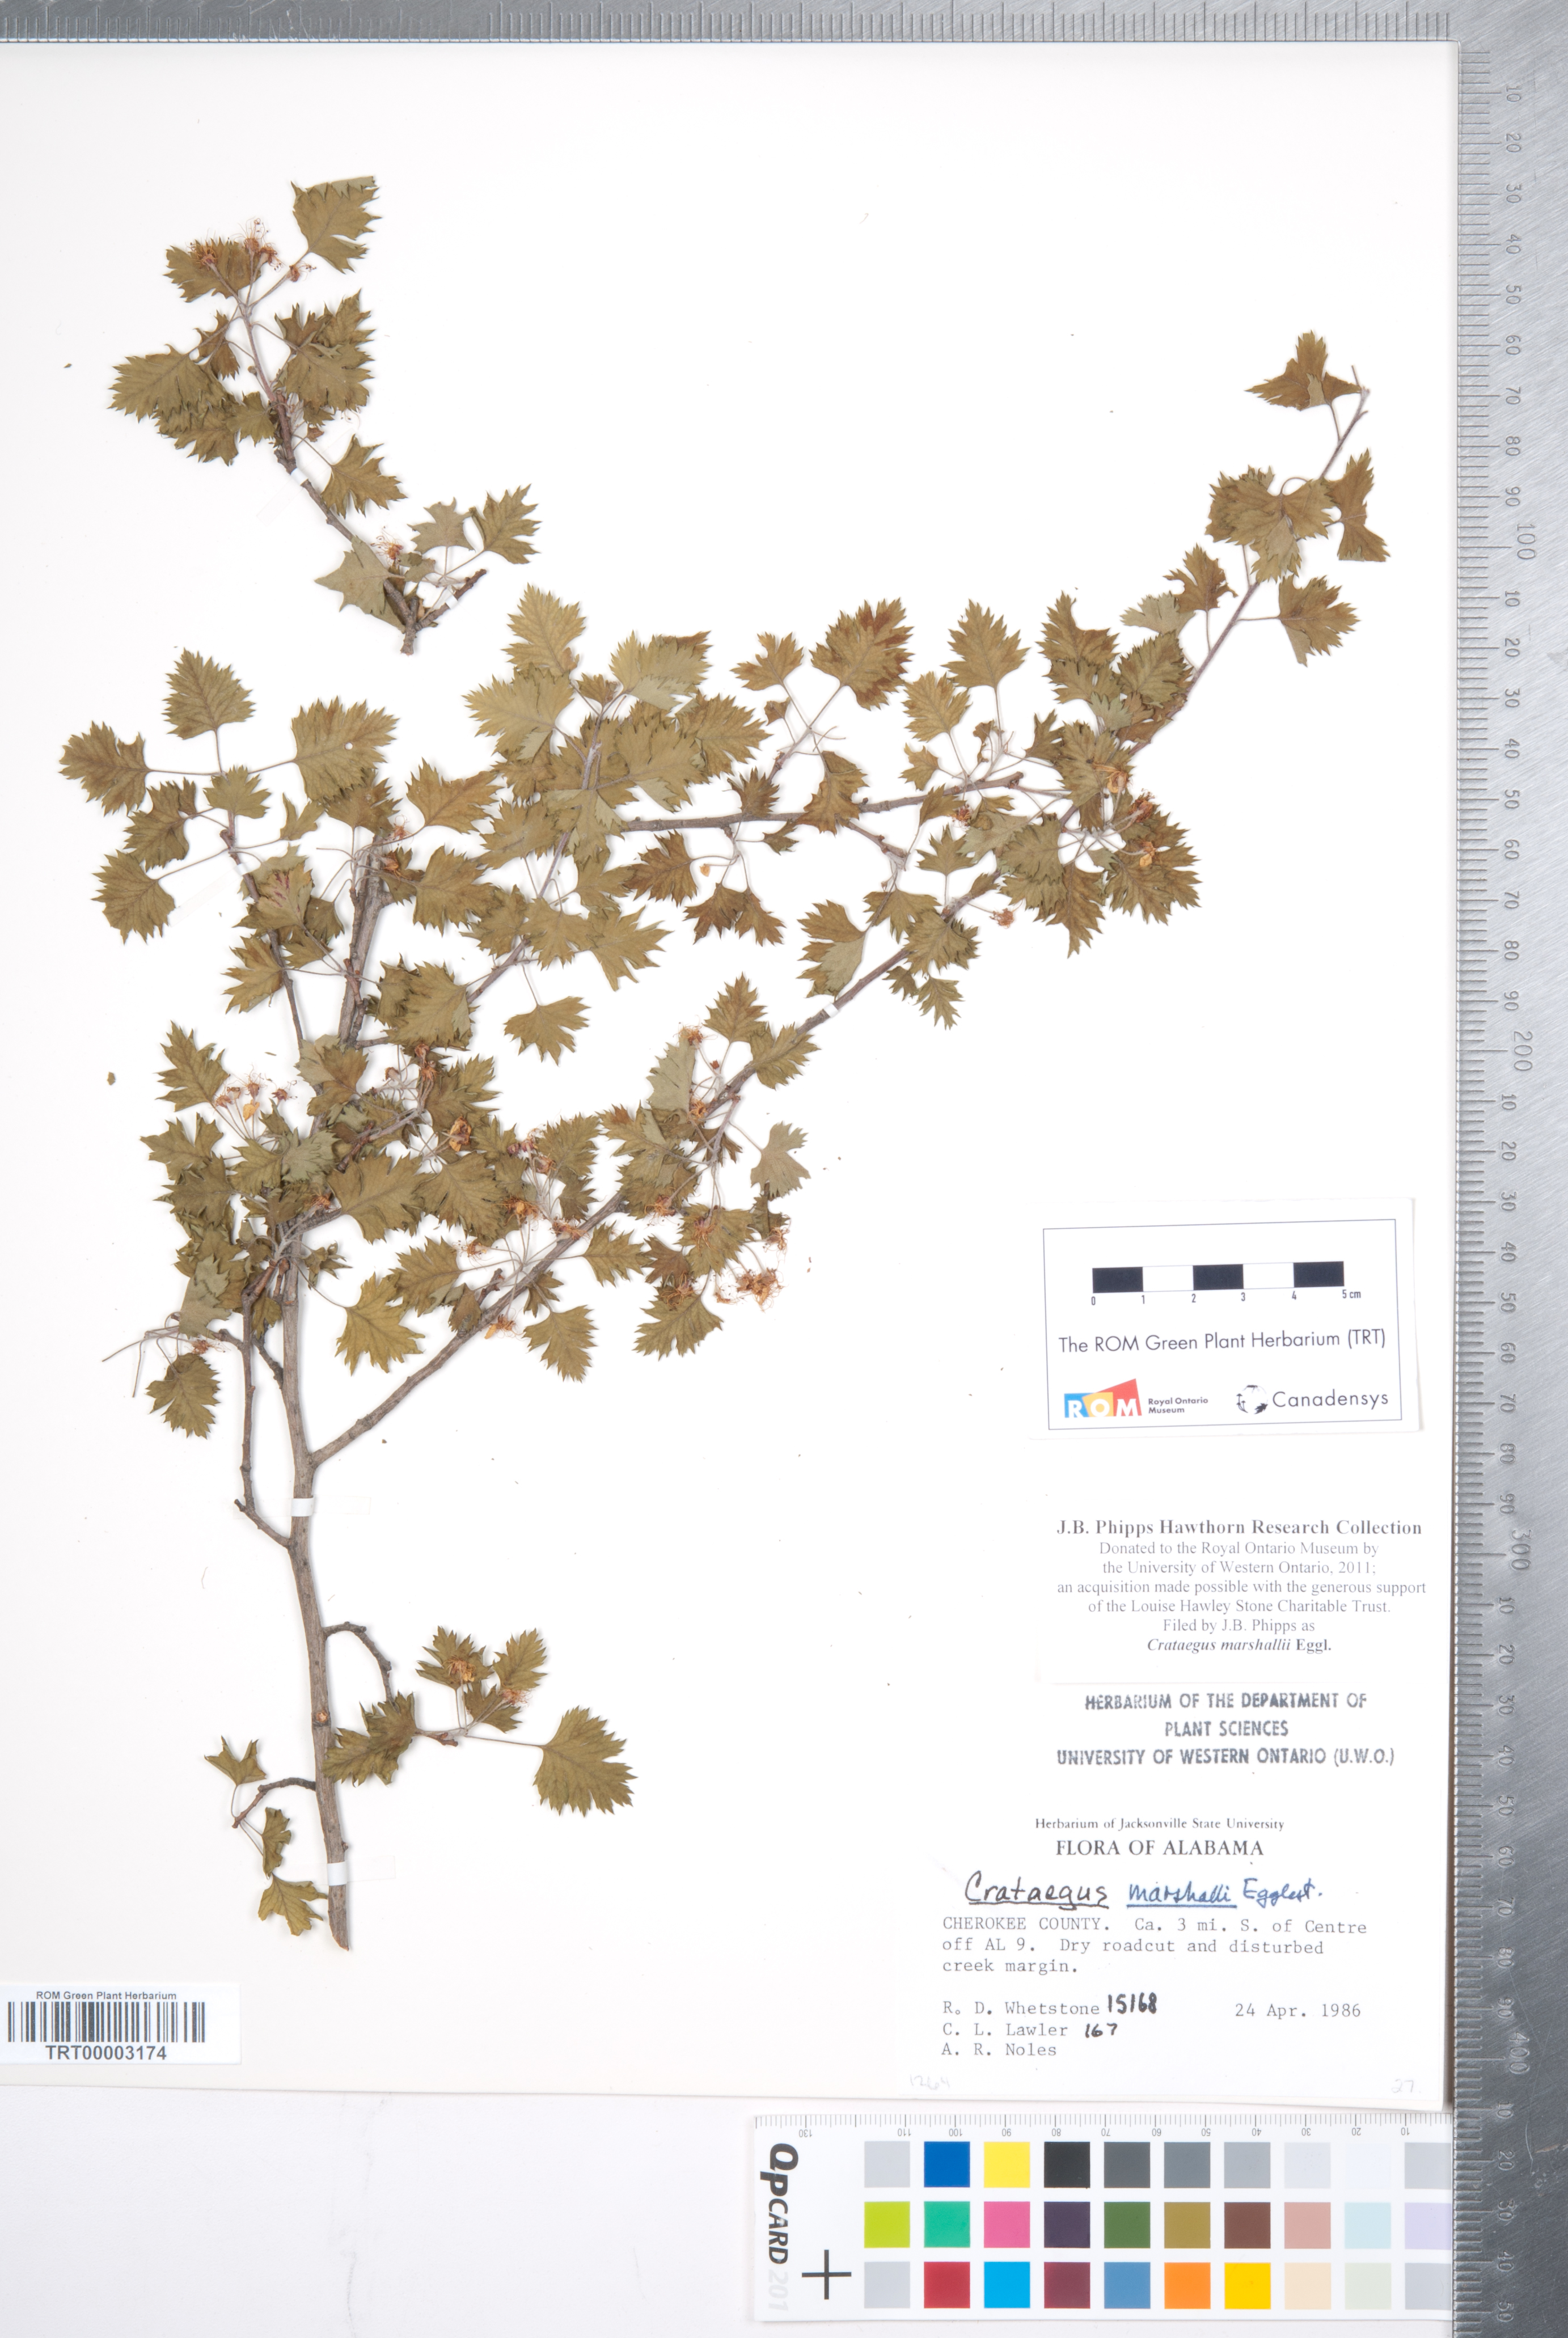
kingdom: Plantae
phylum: Tracheophyta
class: Magnoliopsida
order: Rosales
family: Rosaceae
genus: Crataegus
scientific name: Crataegus marshallii
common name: Parsley-hawthorn
